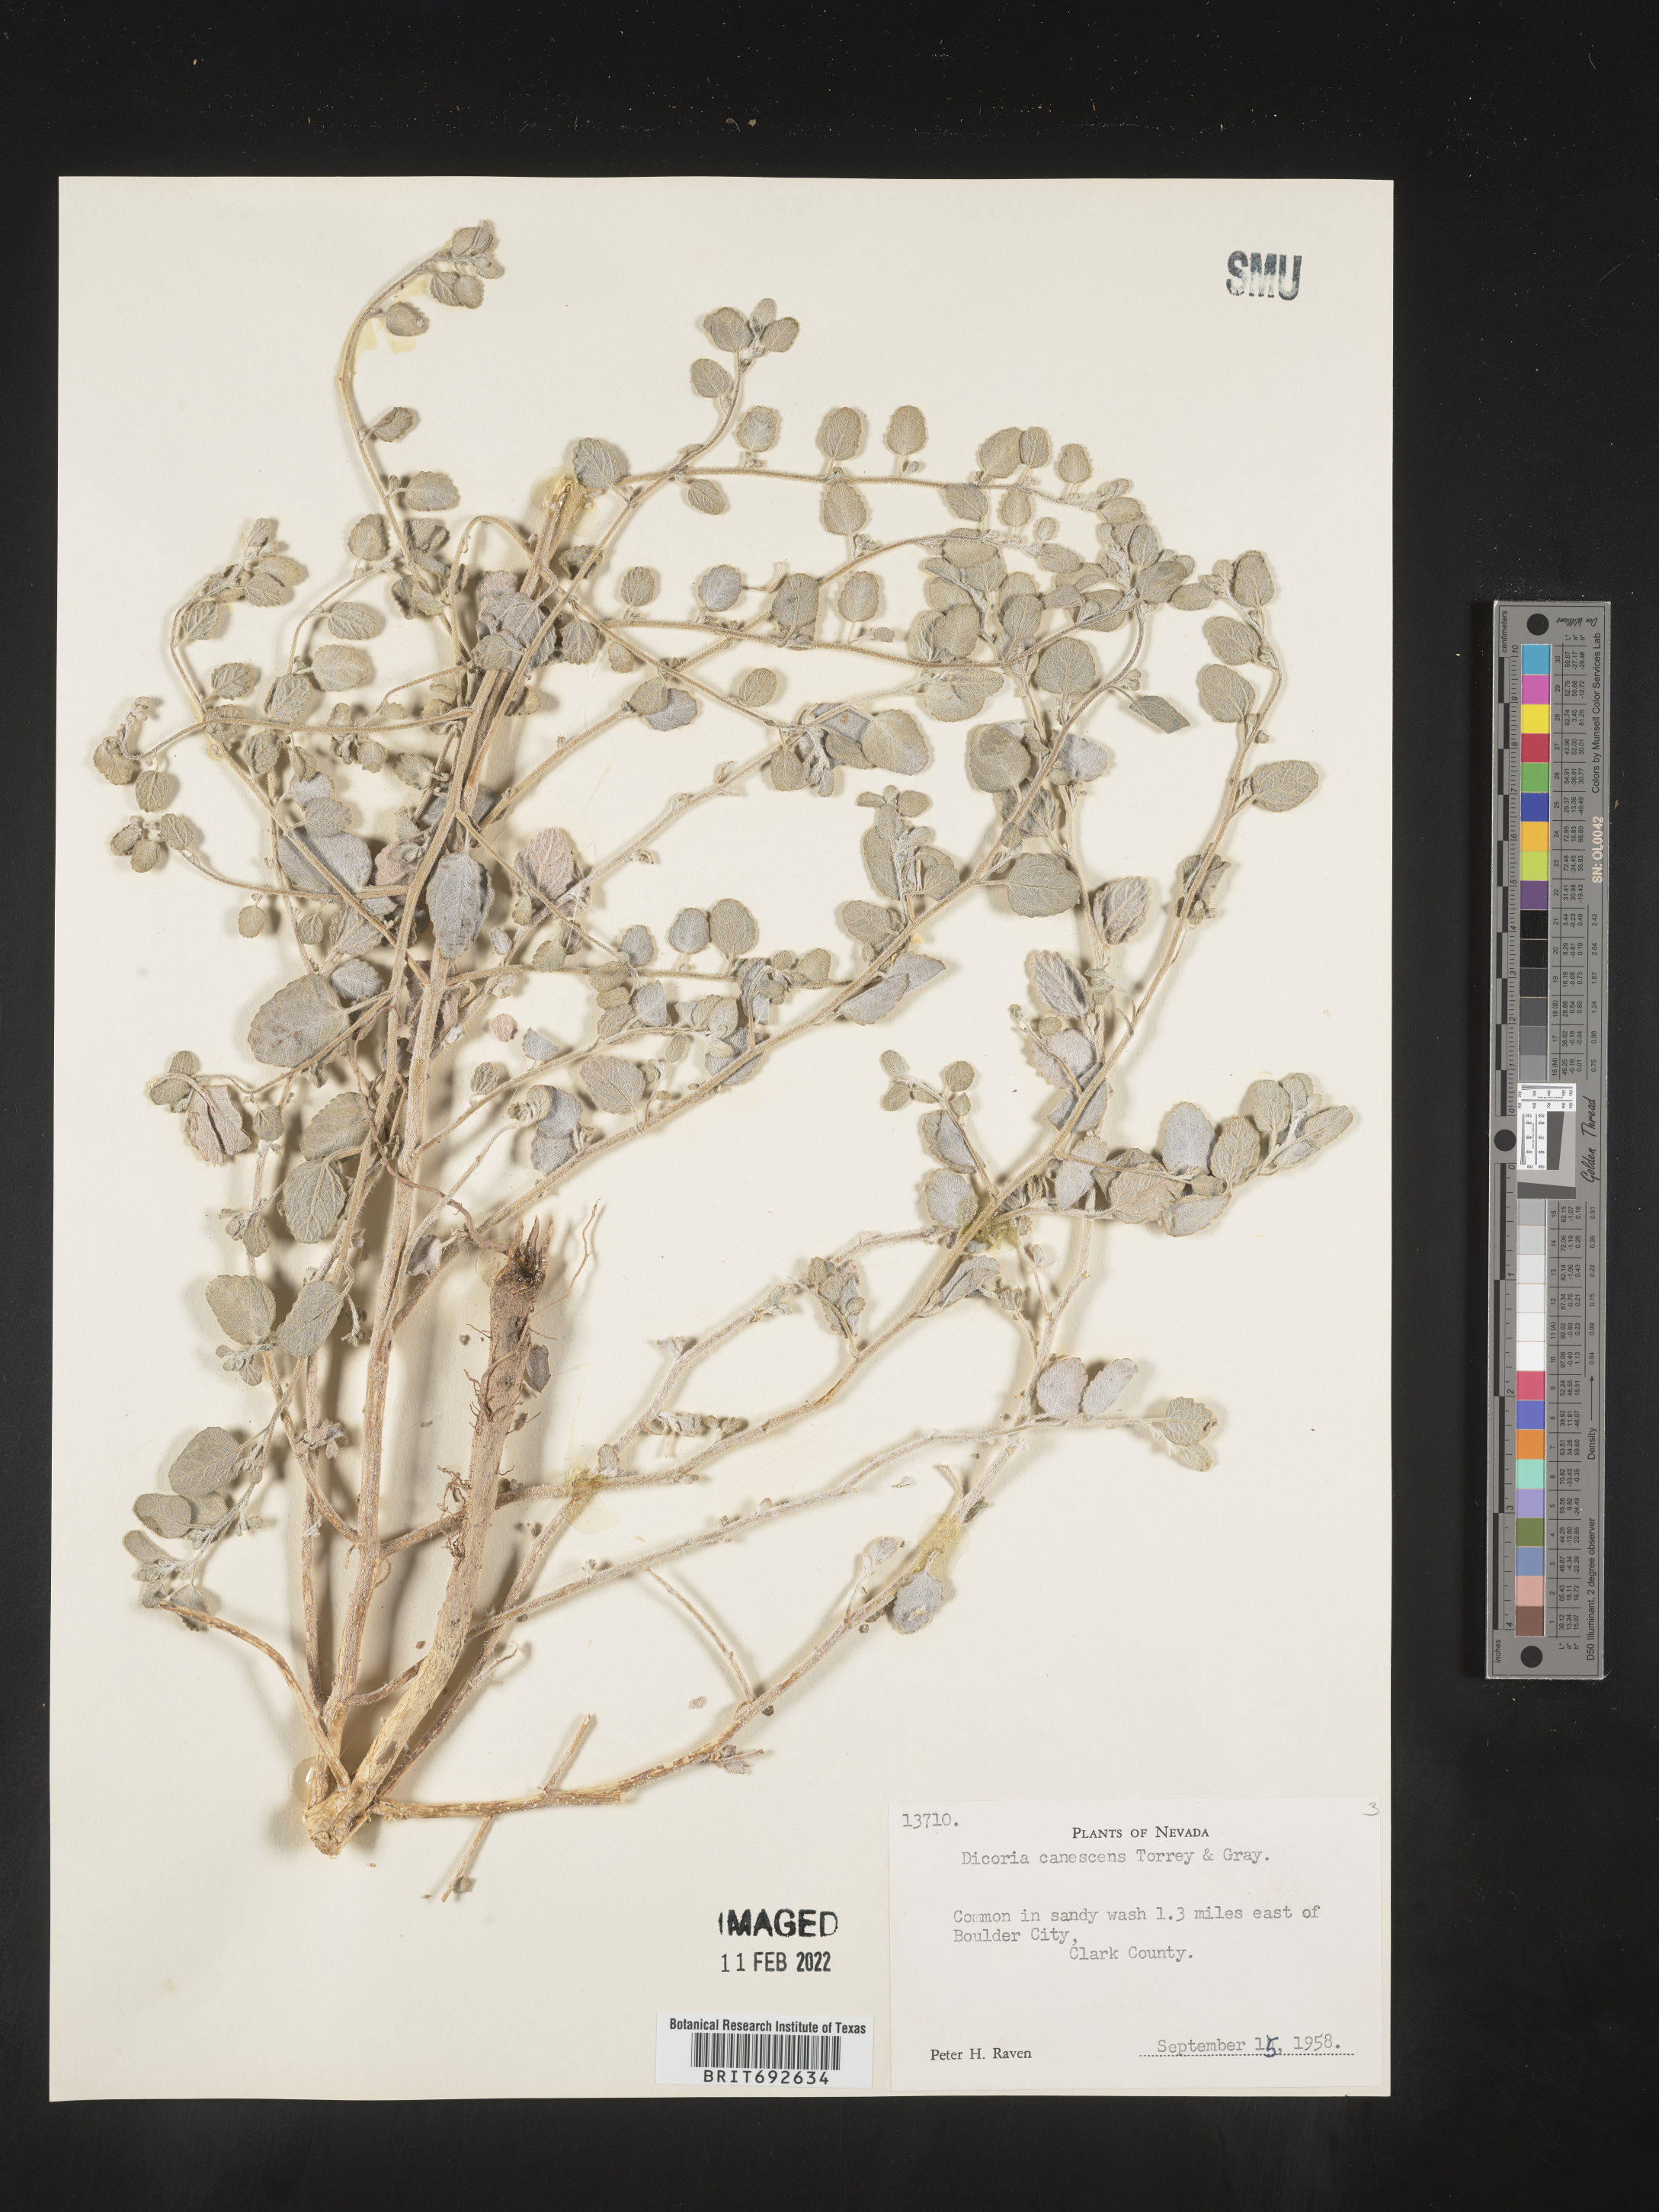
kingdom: Plantae
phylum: Tracheophyta
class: Magnoliopsida
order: Asterales
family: Asteraceae
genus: Dicoria
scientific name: Dicoria
